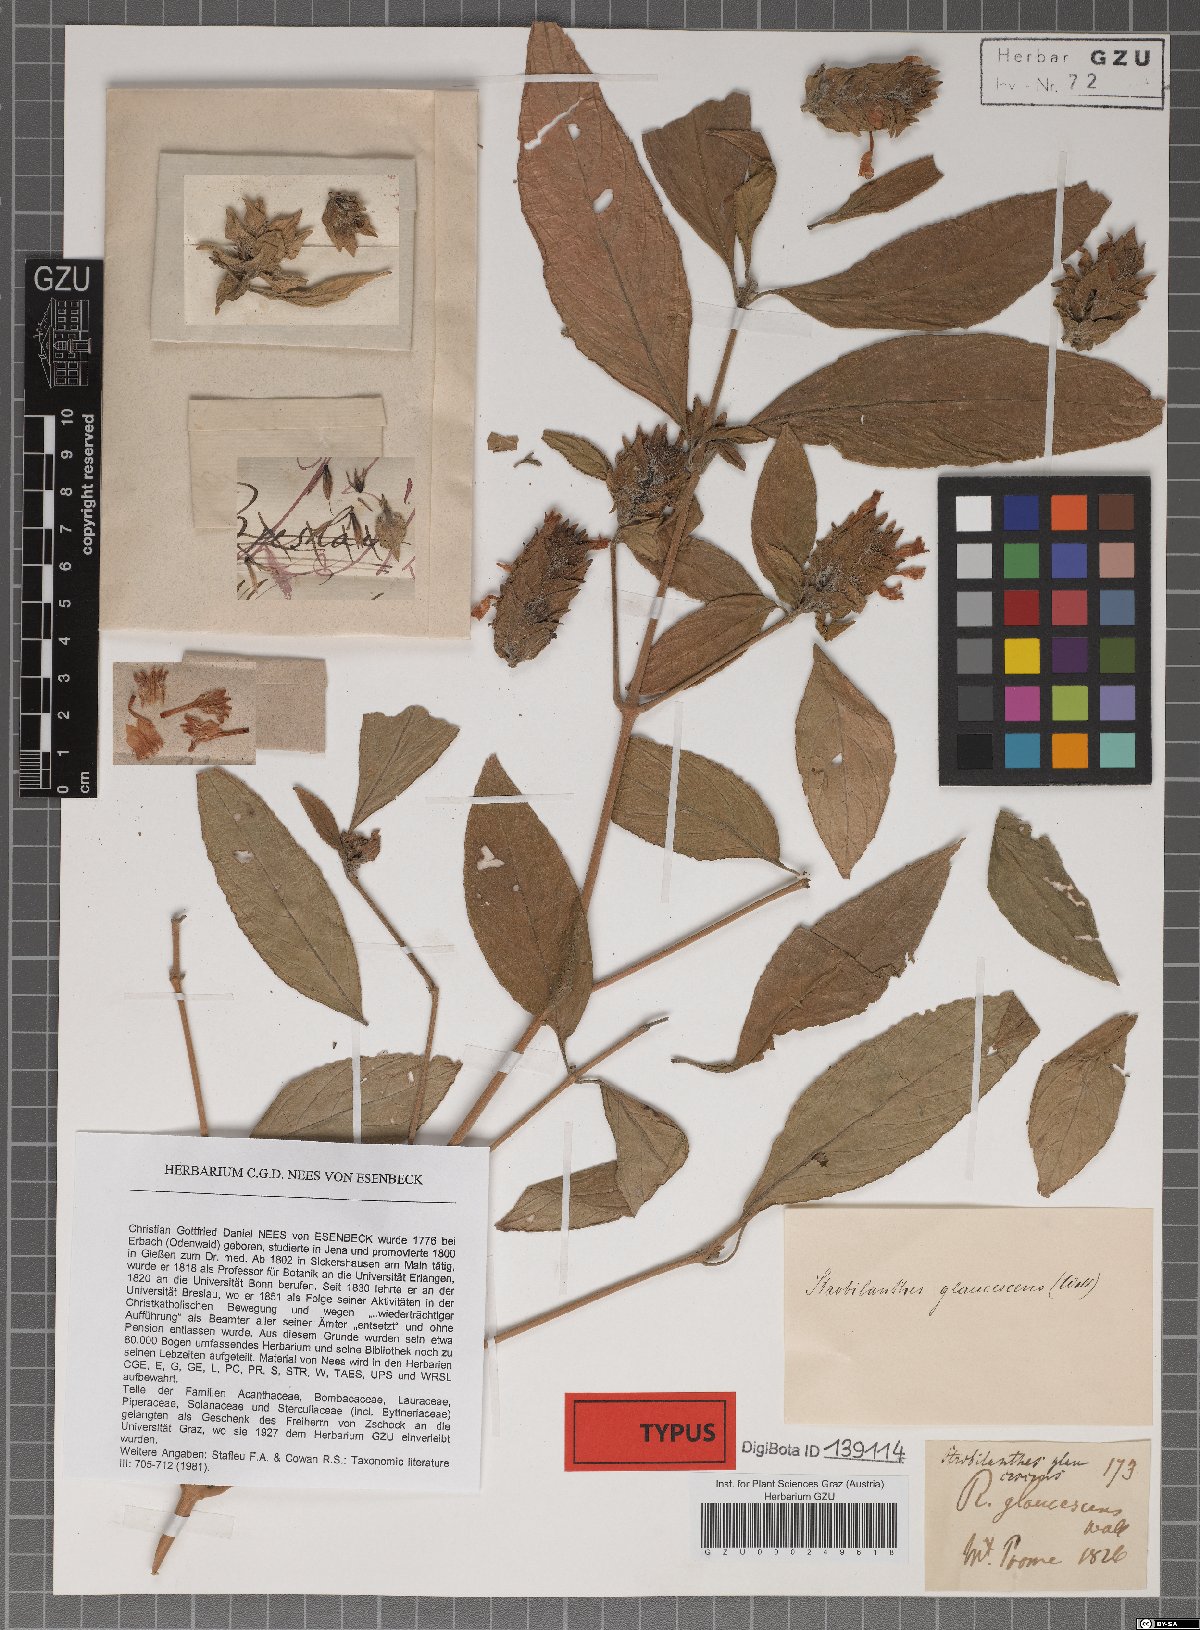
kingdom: Plantae
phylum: Tracheophyta
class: Magnoliopsida
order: Lamiales
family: Acanthaceae
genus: Strobilanthes
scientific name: Strobilanthes glaucescens
